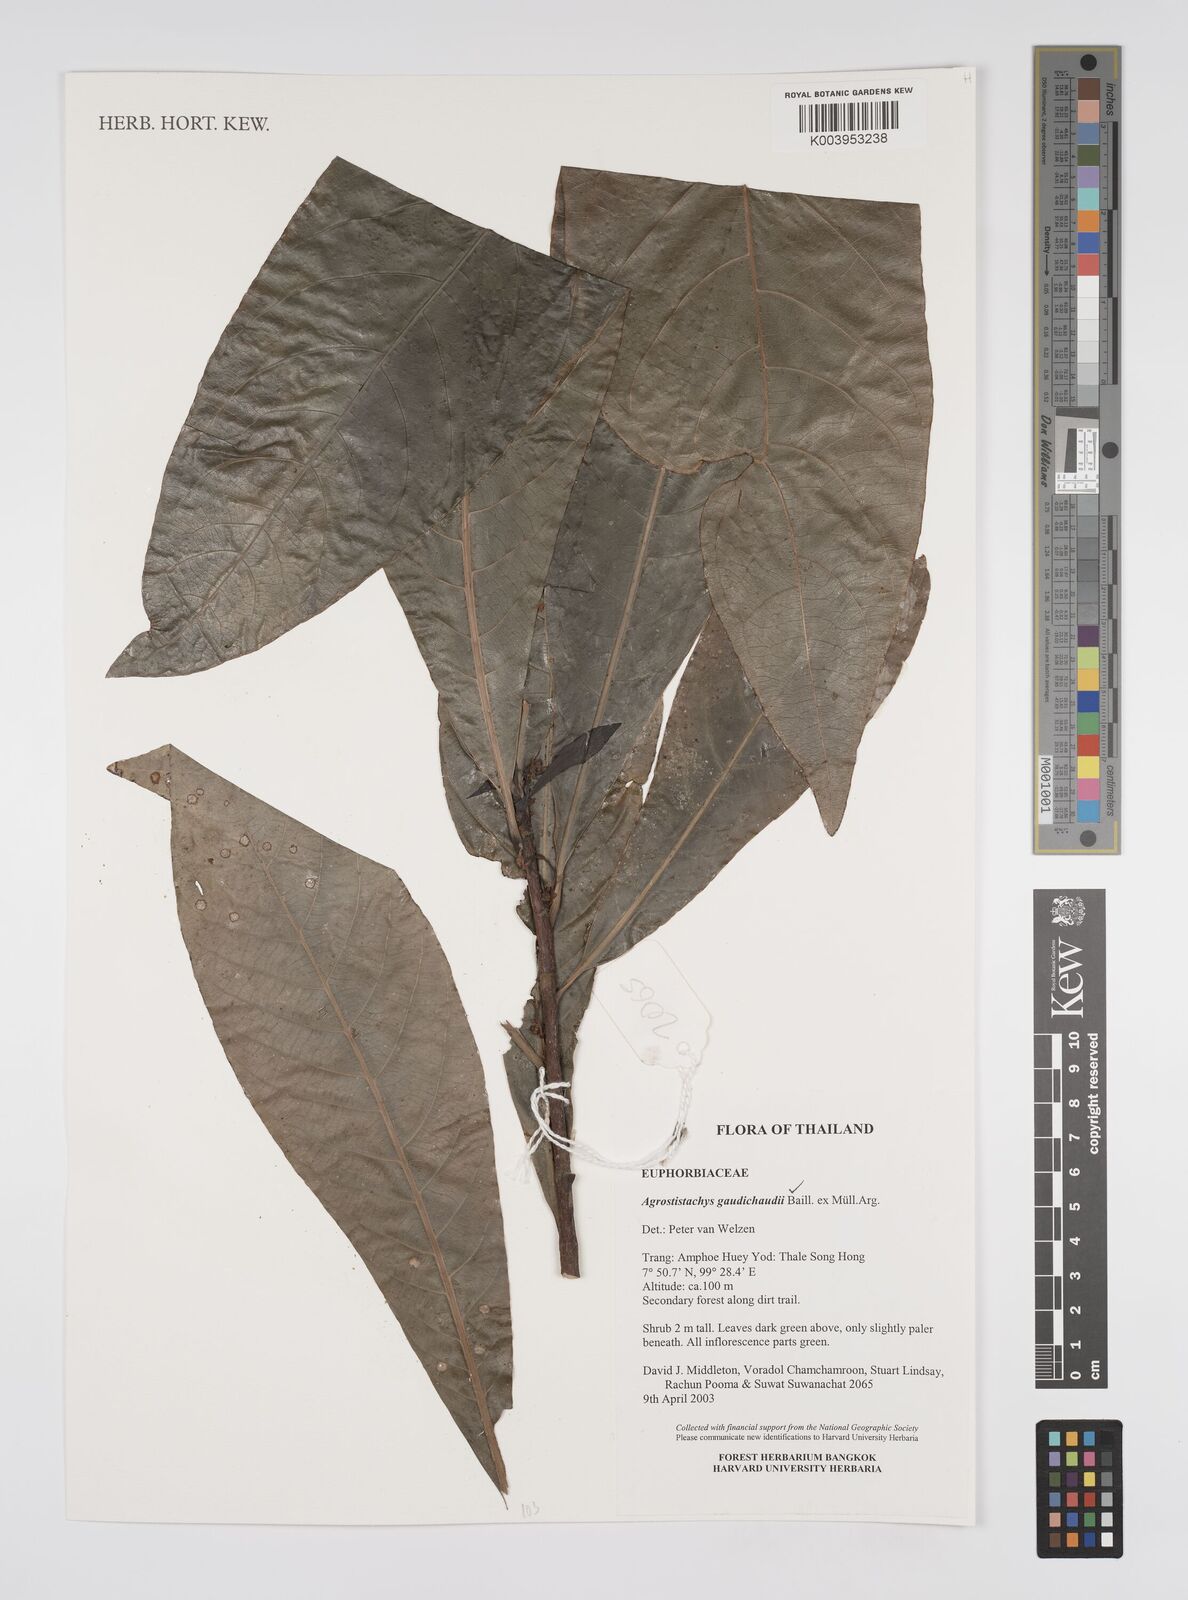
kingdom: Plantae
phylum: Tracheophyta
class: Magnoliopsida
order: Malpighiales
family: Euphorbiaceae
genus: Agrostistachys
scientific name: Agrostistachys gaudichaudii
